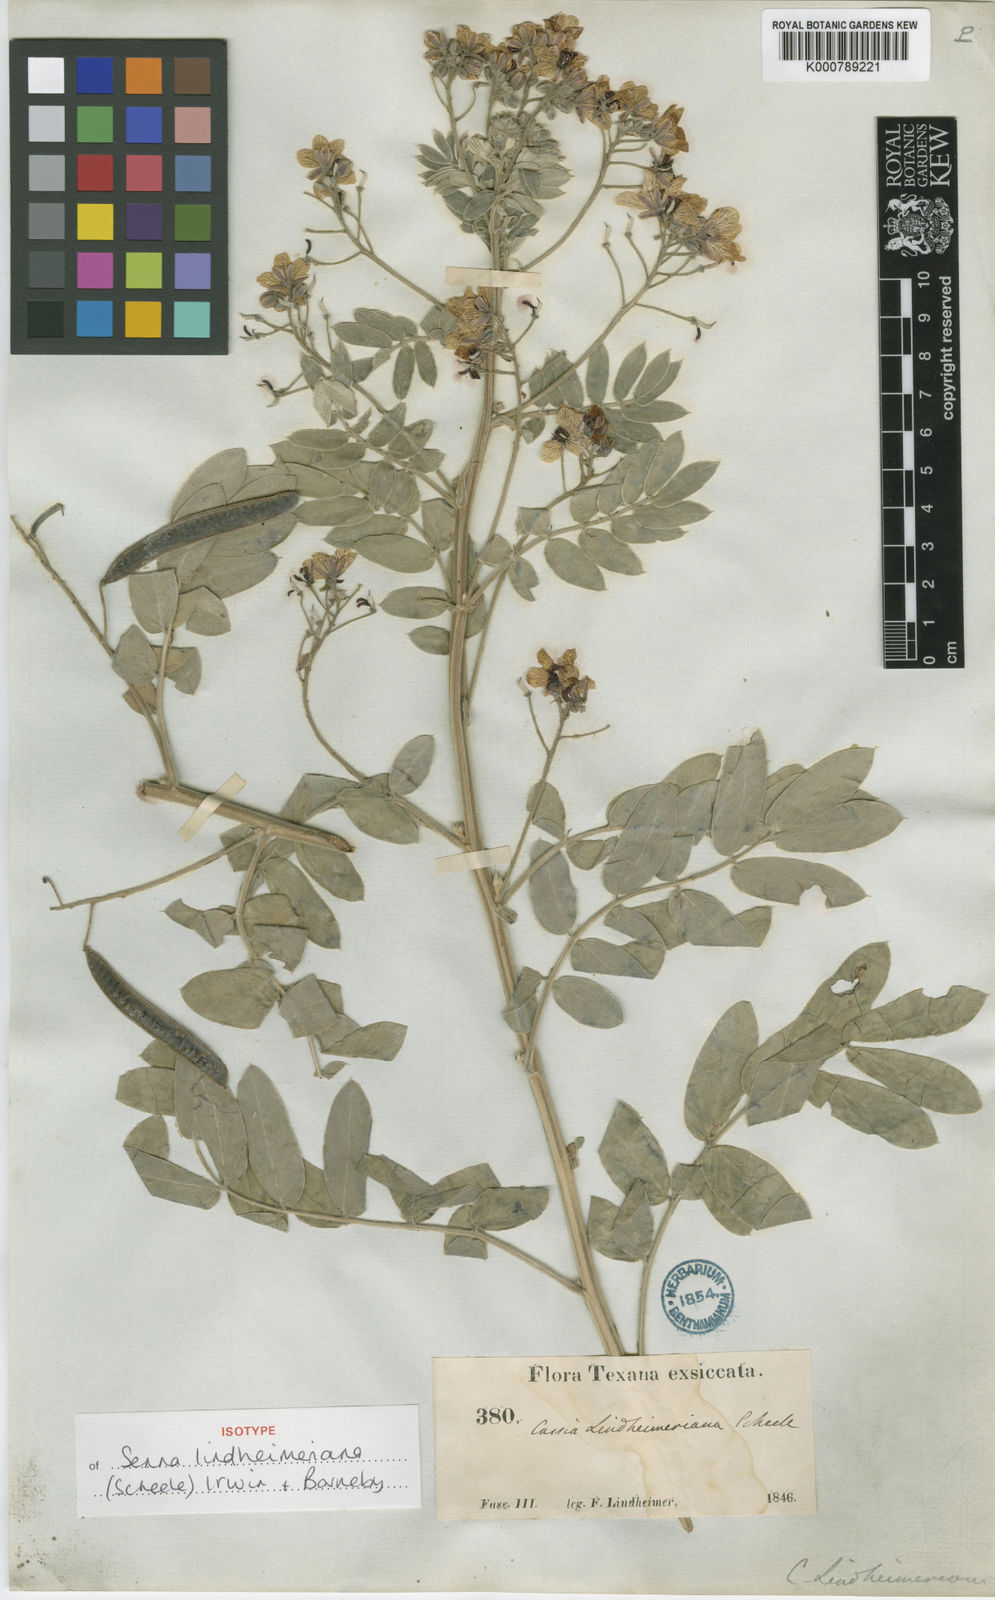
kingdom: Plantae
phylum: Tracheophyta
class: Magnoliopsida
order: Fabales
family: Fabaceae
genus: Senna
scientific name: Senna lindheimeriana
